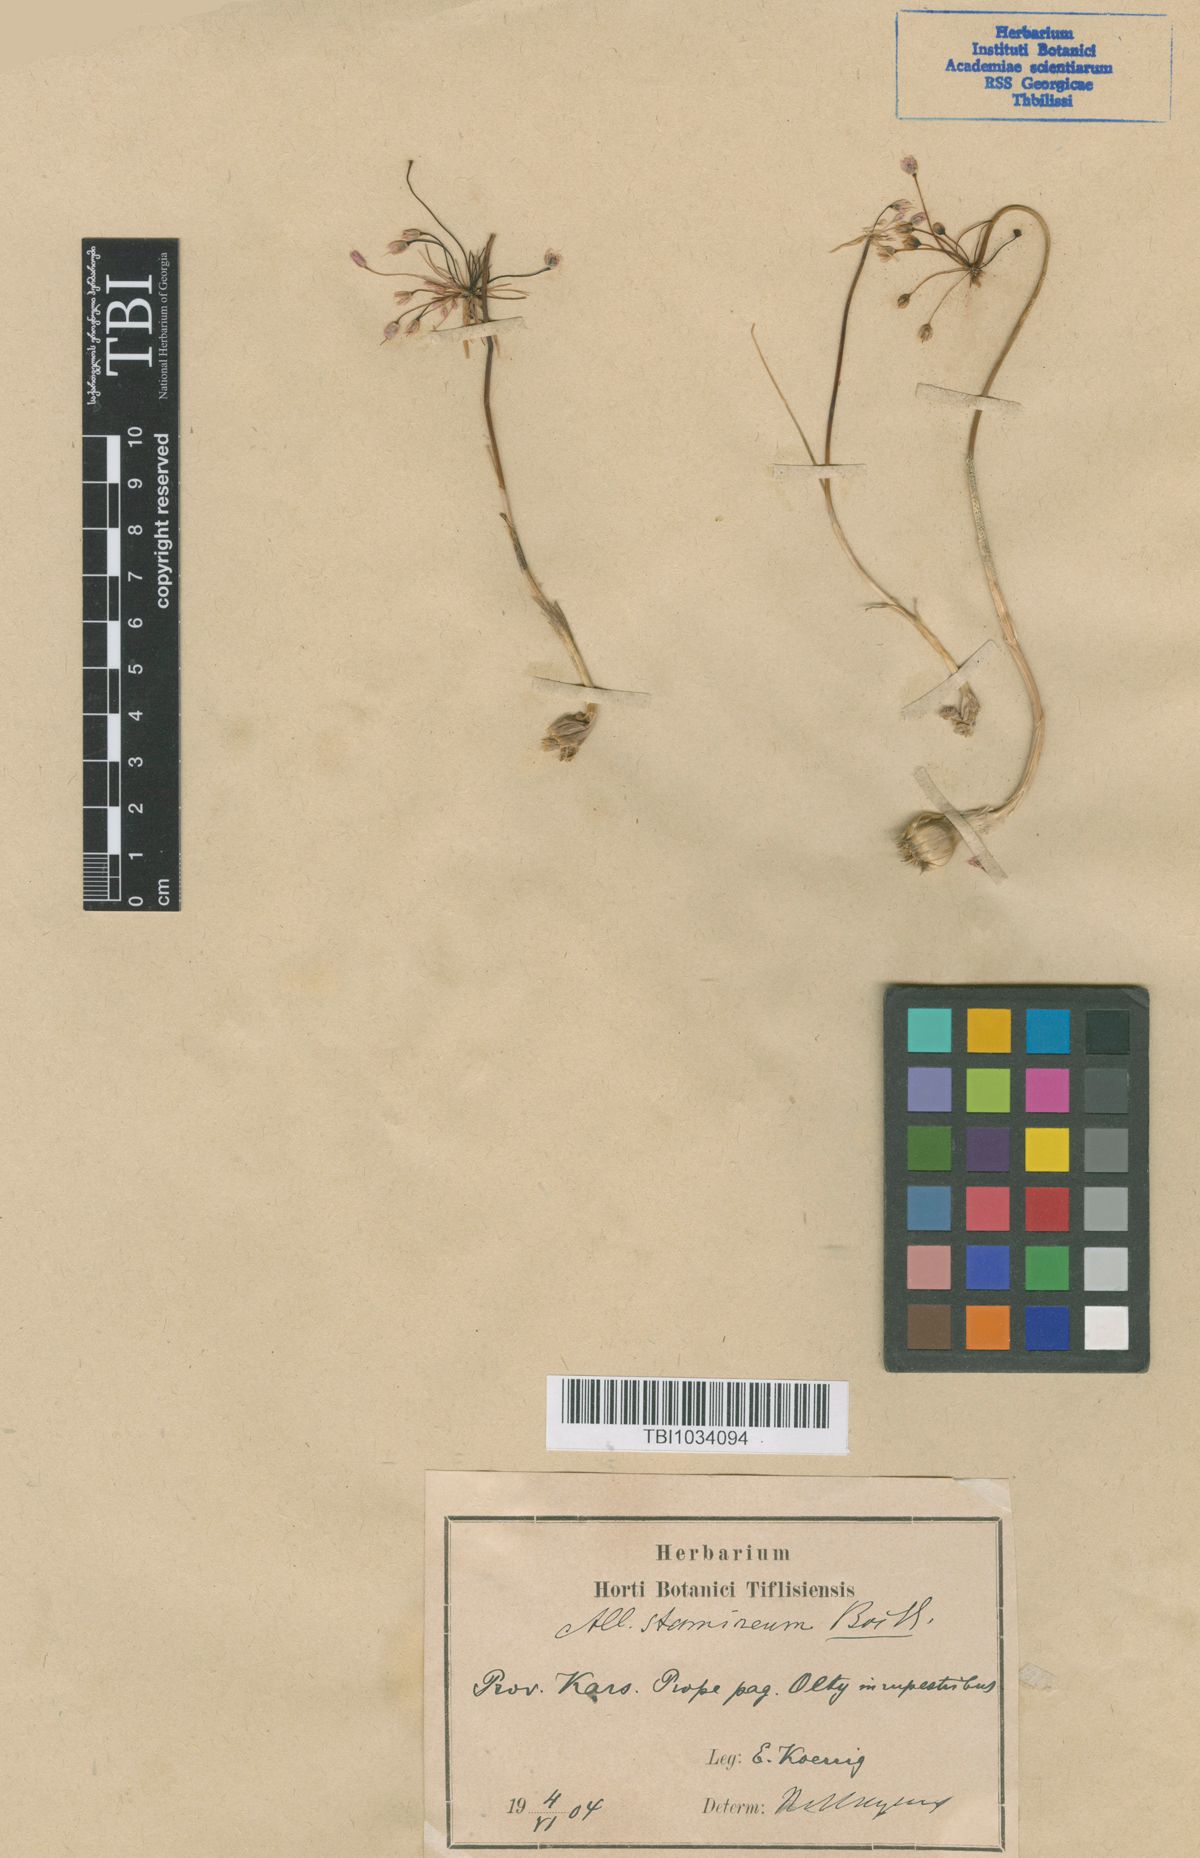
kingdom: Plantae
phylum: Tracheophyta
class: Liliopsida
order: Asparagales
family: Amaryllidaceae
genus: Allium
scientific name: Allium stamineum
